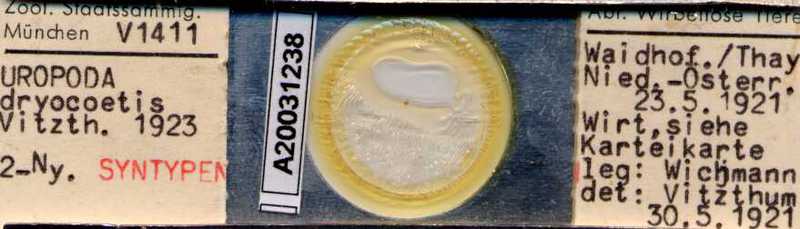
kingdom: Animalia
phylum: Arthropoda
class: Arachnida
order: Mesostigmata
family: Uropodidae
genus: Uropoda
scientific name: Uropoda
